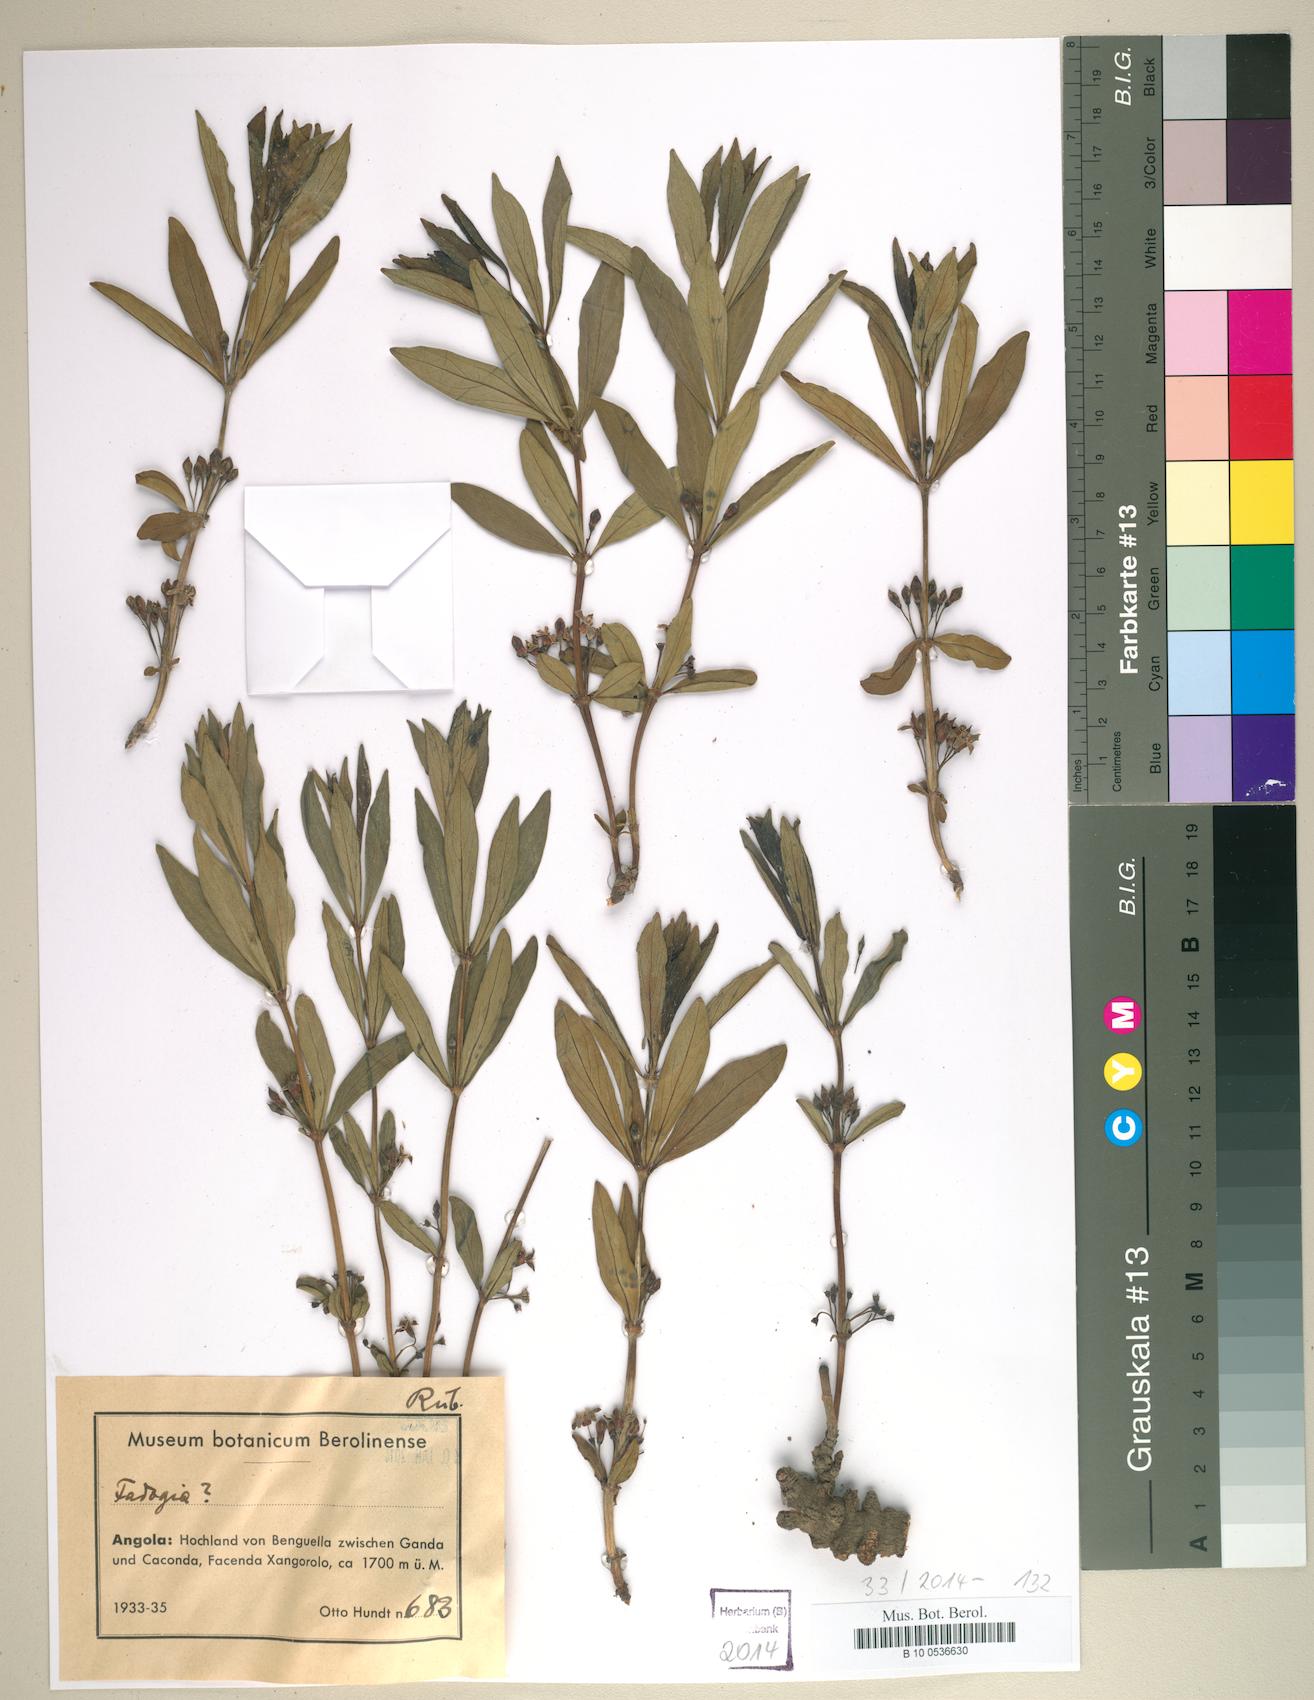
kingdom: Plantae
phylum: Tracheophyta
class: Magnoliopsida
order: Gentianales
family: Rubiaceae
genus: Fadogia
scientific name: Fadogia
